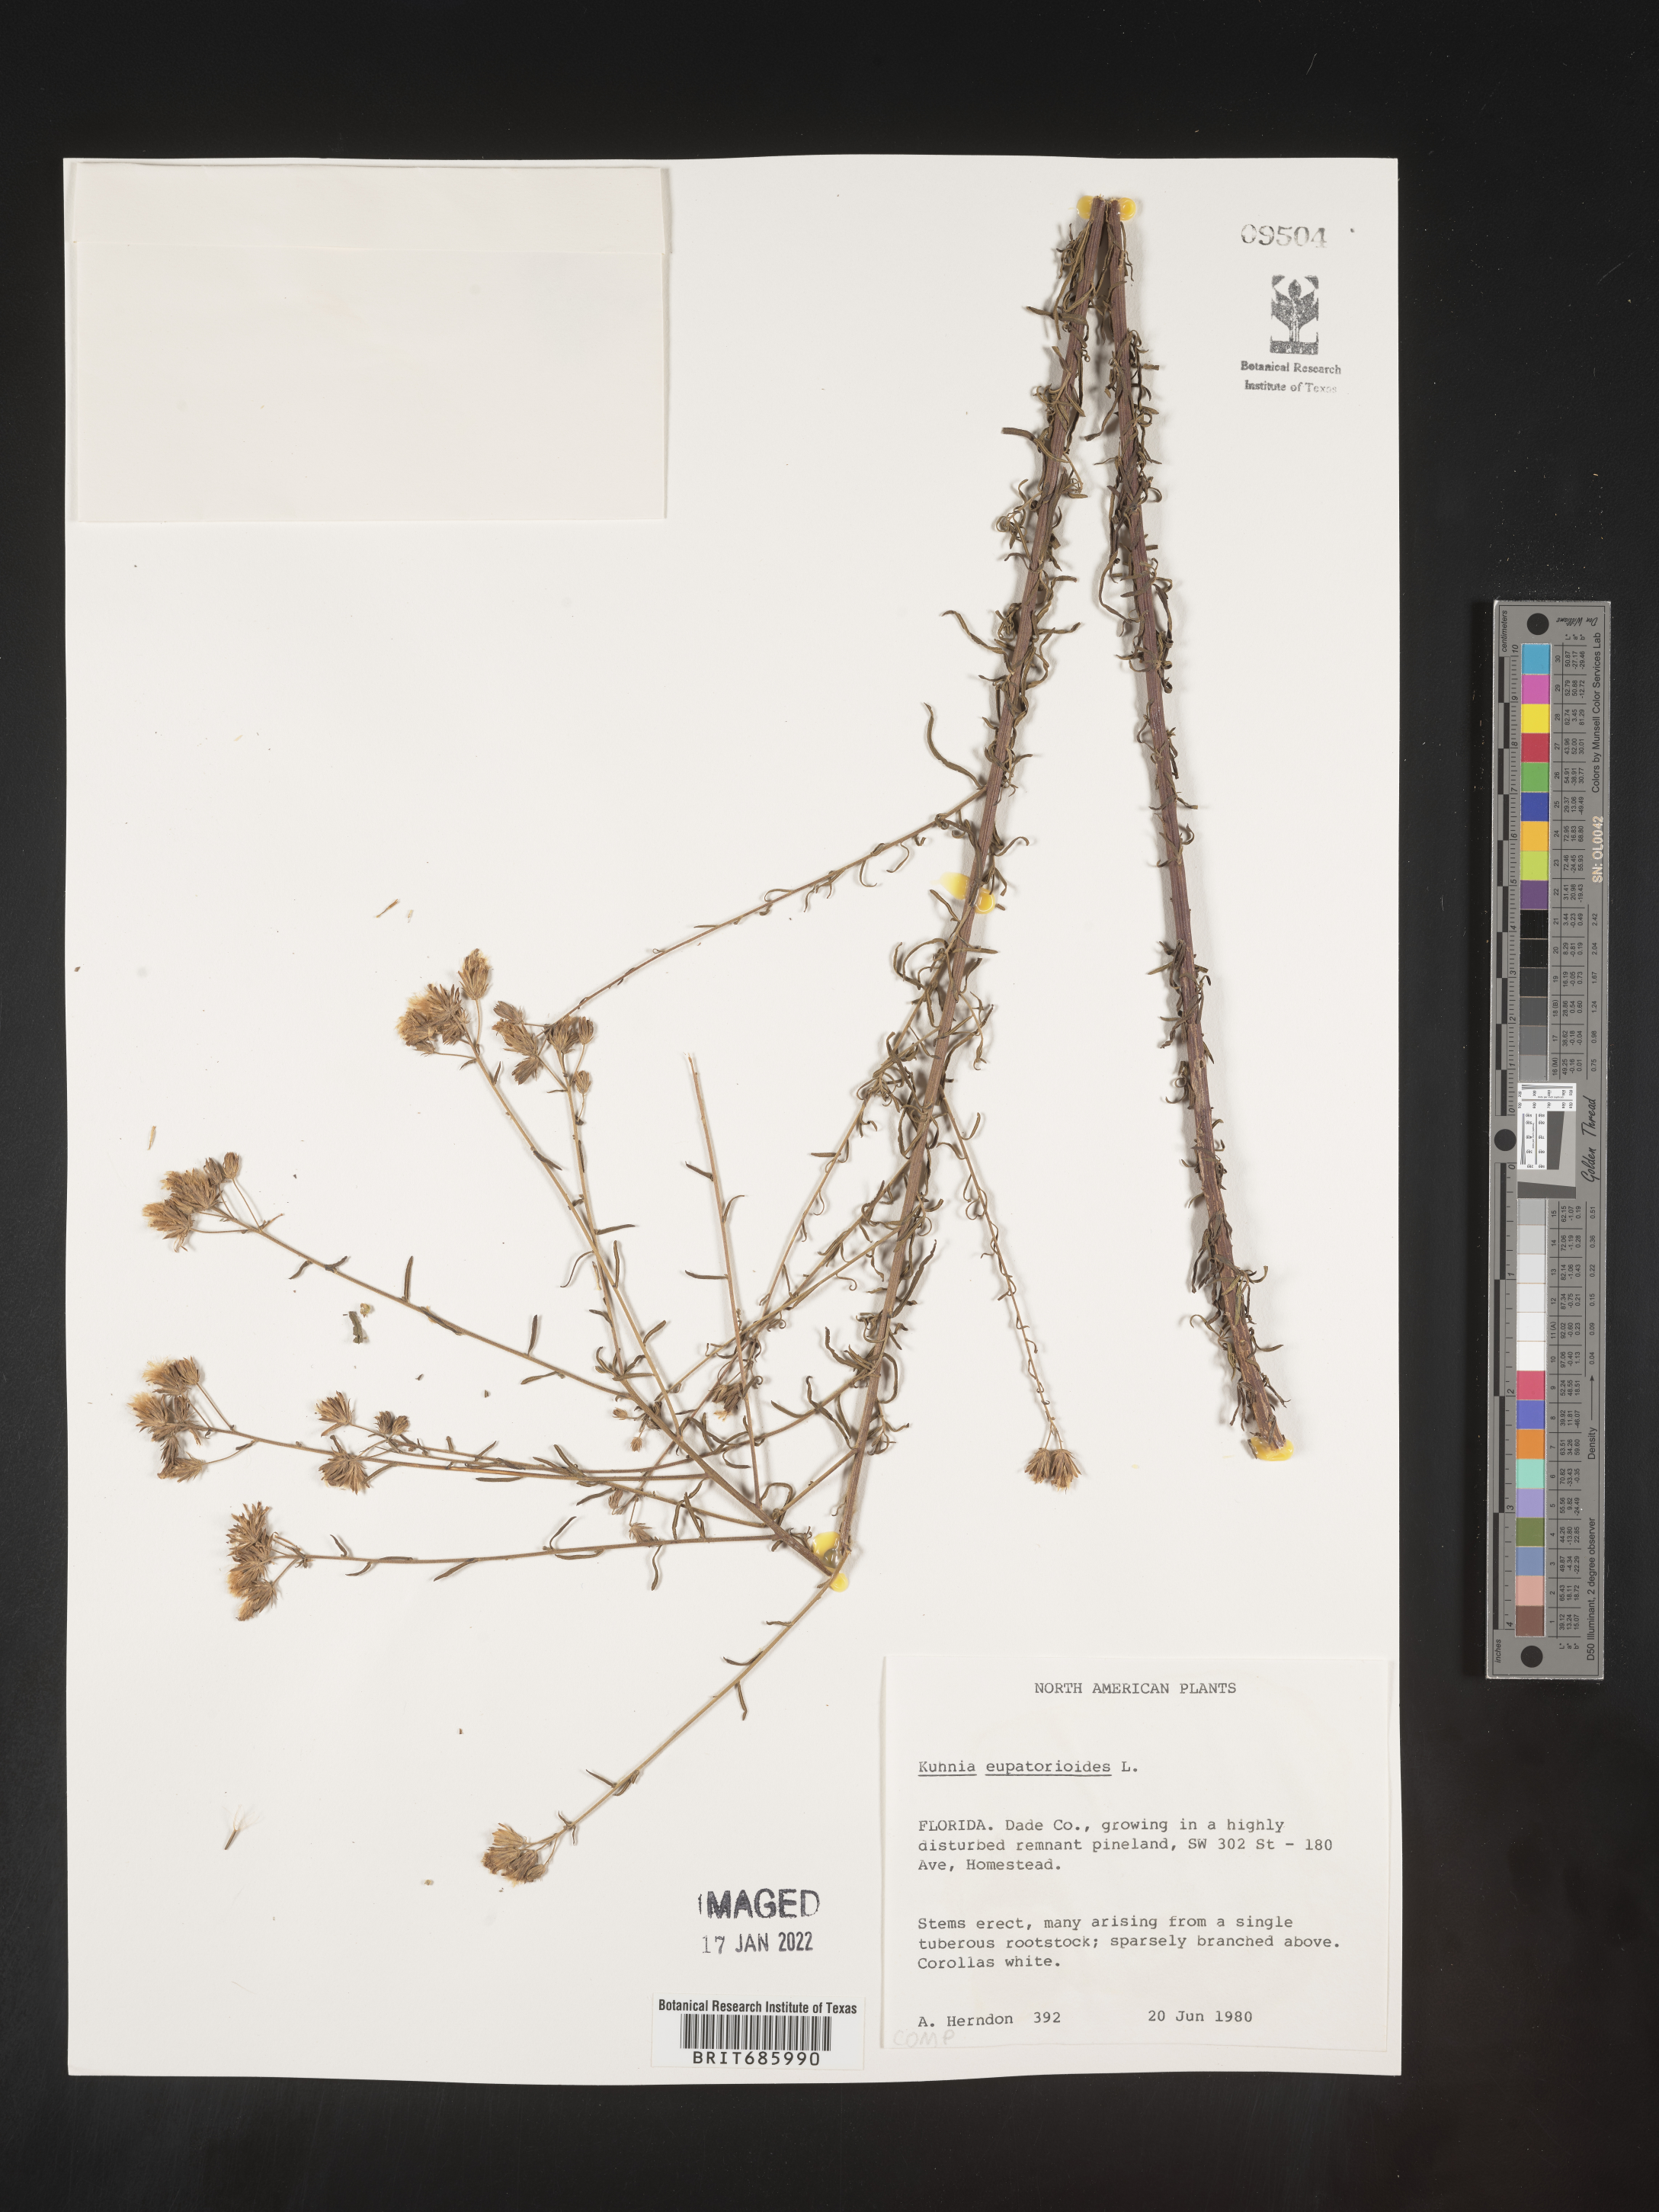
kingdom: Plantae
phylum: Tracheophyta
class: Magnoliopsida
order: Asterales
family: Asteraceae
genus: Brickellia
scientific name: Brickellia eupatorioides
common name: False boneset
